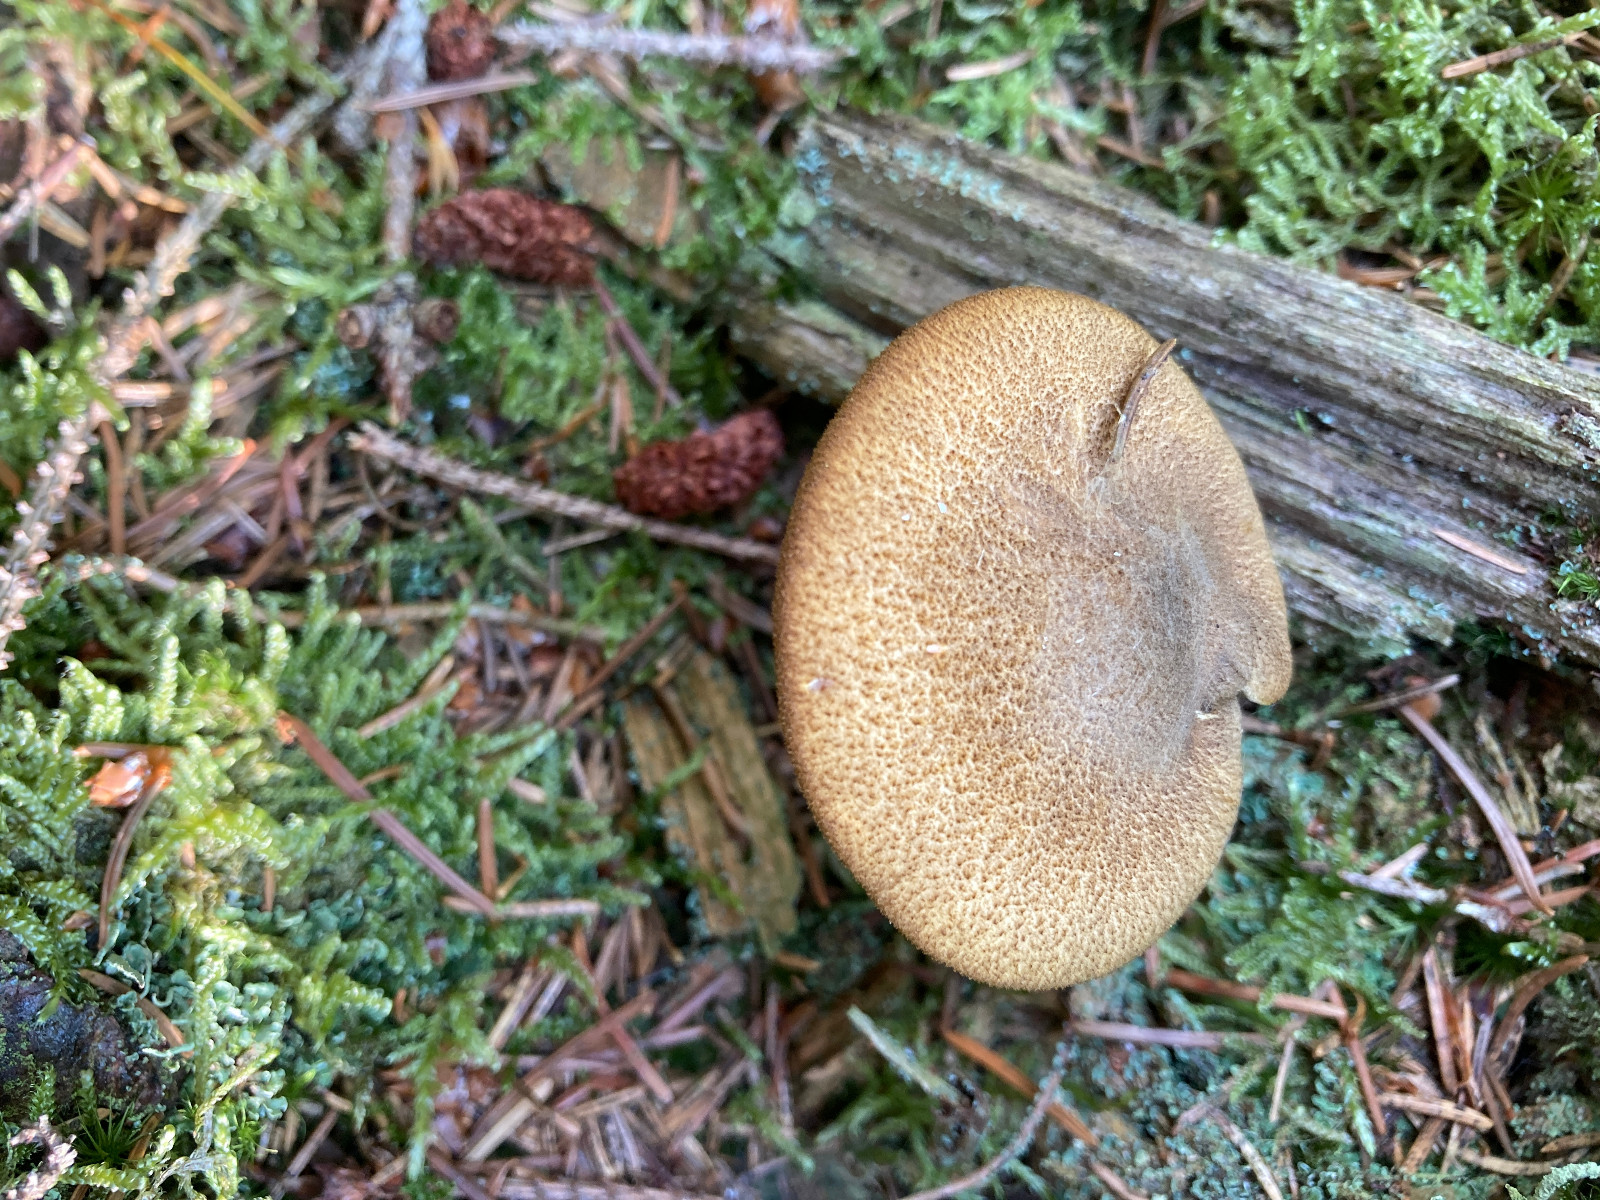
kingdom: Fungi
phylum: Basidiomycota
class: Agaricomycetes
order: Agaricales
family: Tricholomataceae
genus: Tricholomopsis
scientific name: Tricholomopsis decora
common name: sortskællet væbnerhat
